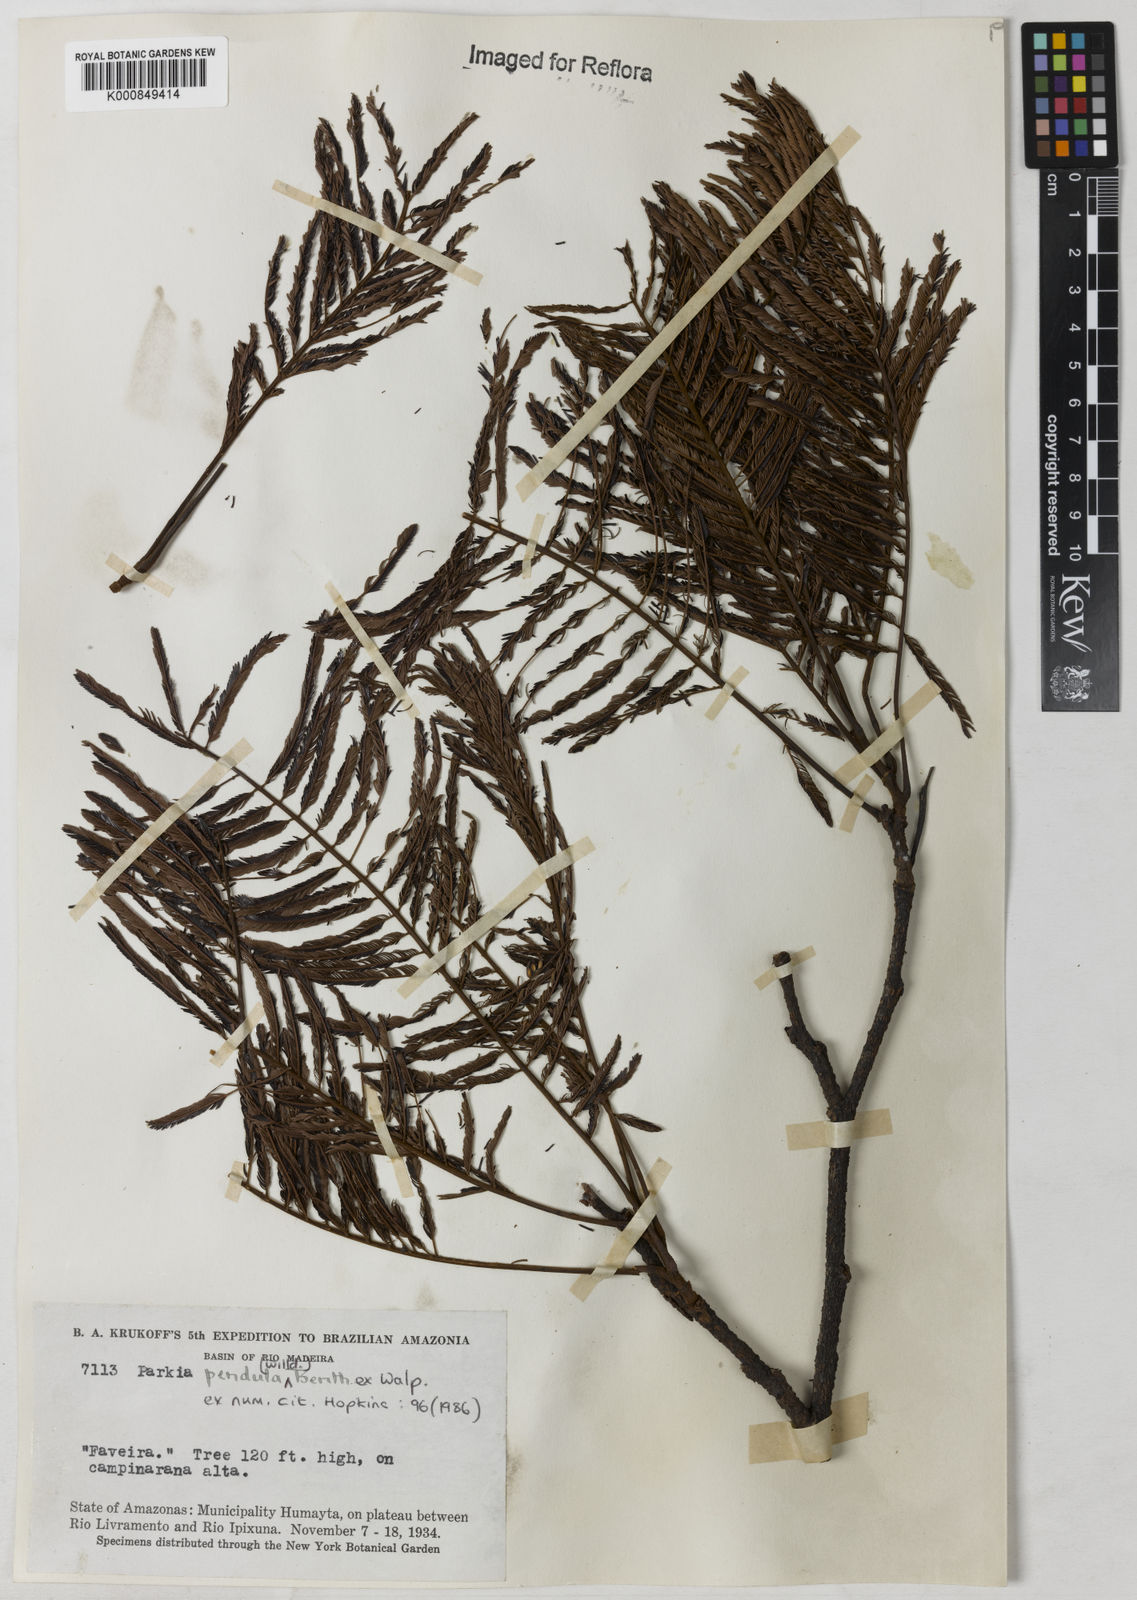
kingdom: Plantae
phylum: Tracheophyta
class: Magnoliopsida
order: Fabales
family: Fabaceae
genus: Parkia
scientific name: Parkia
